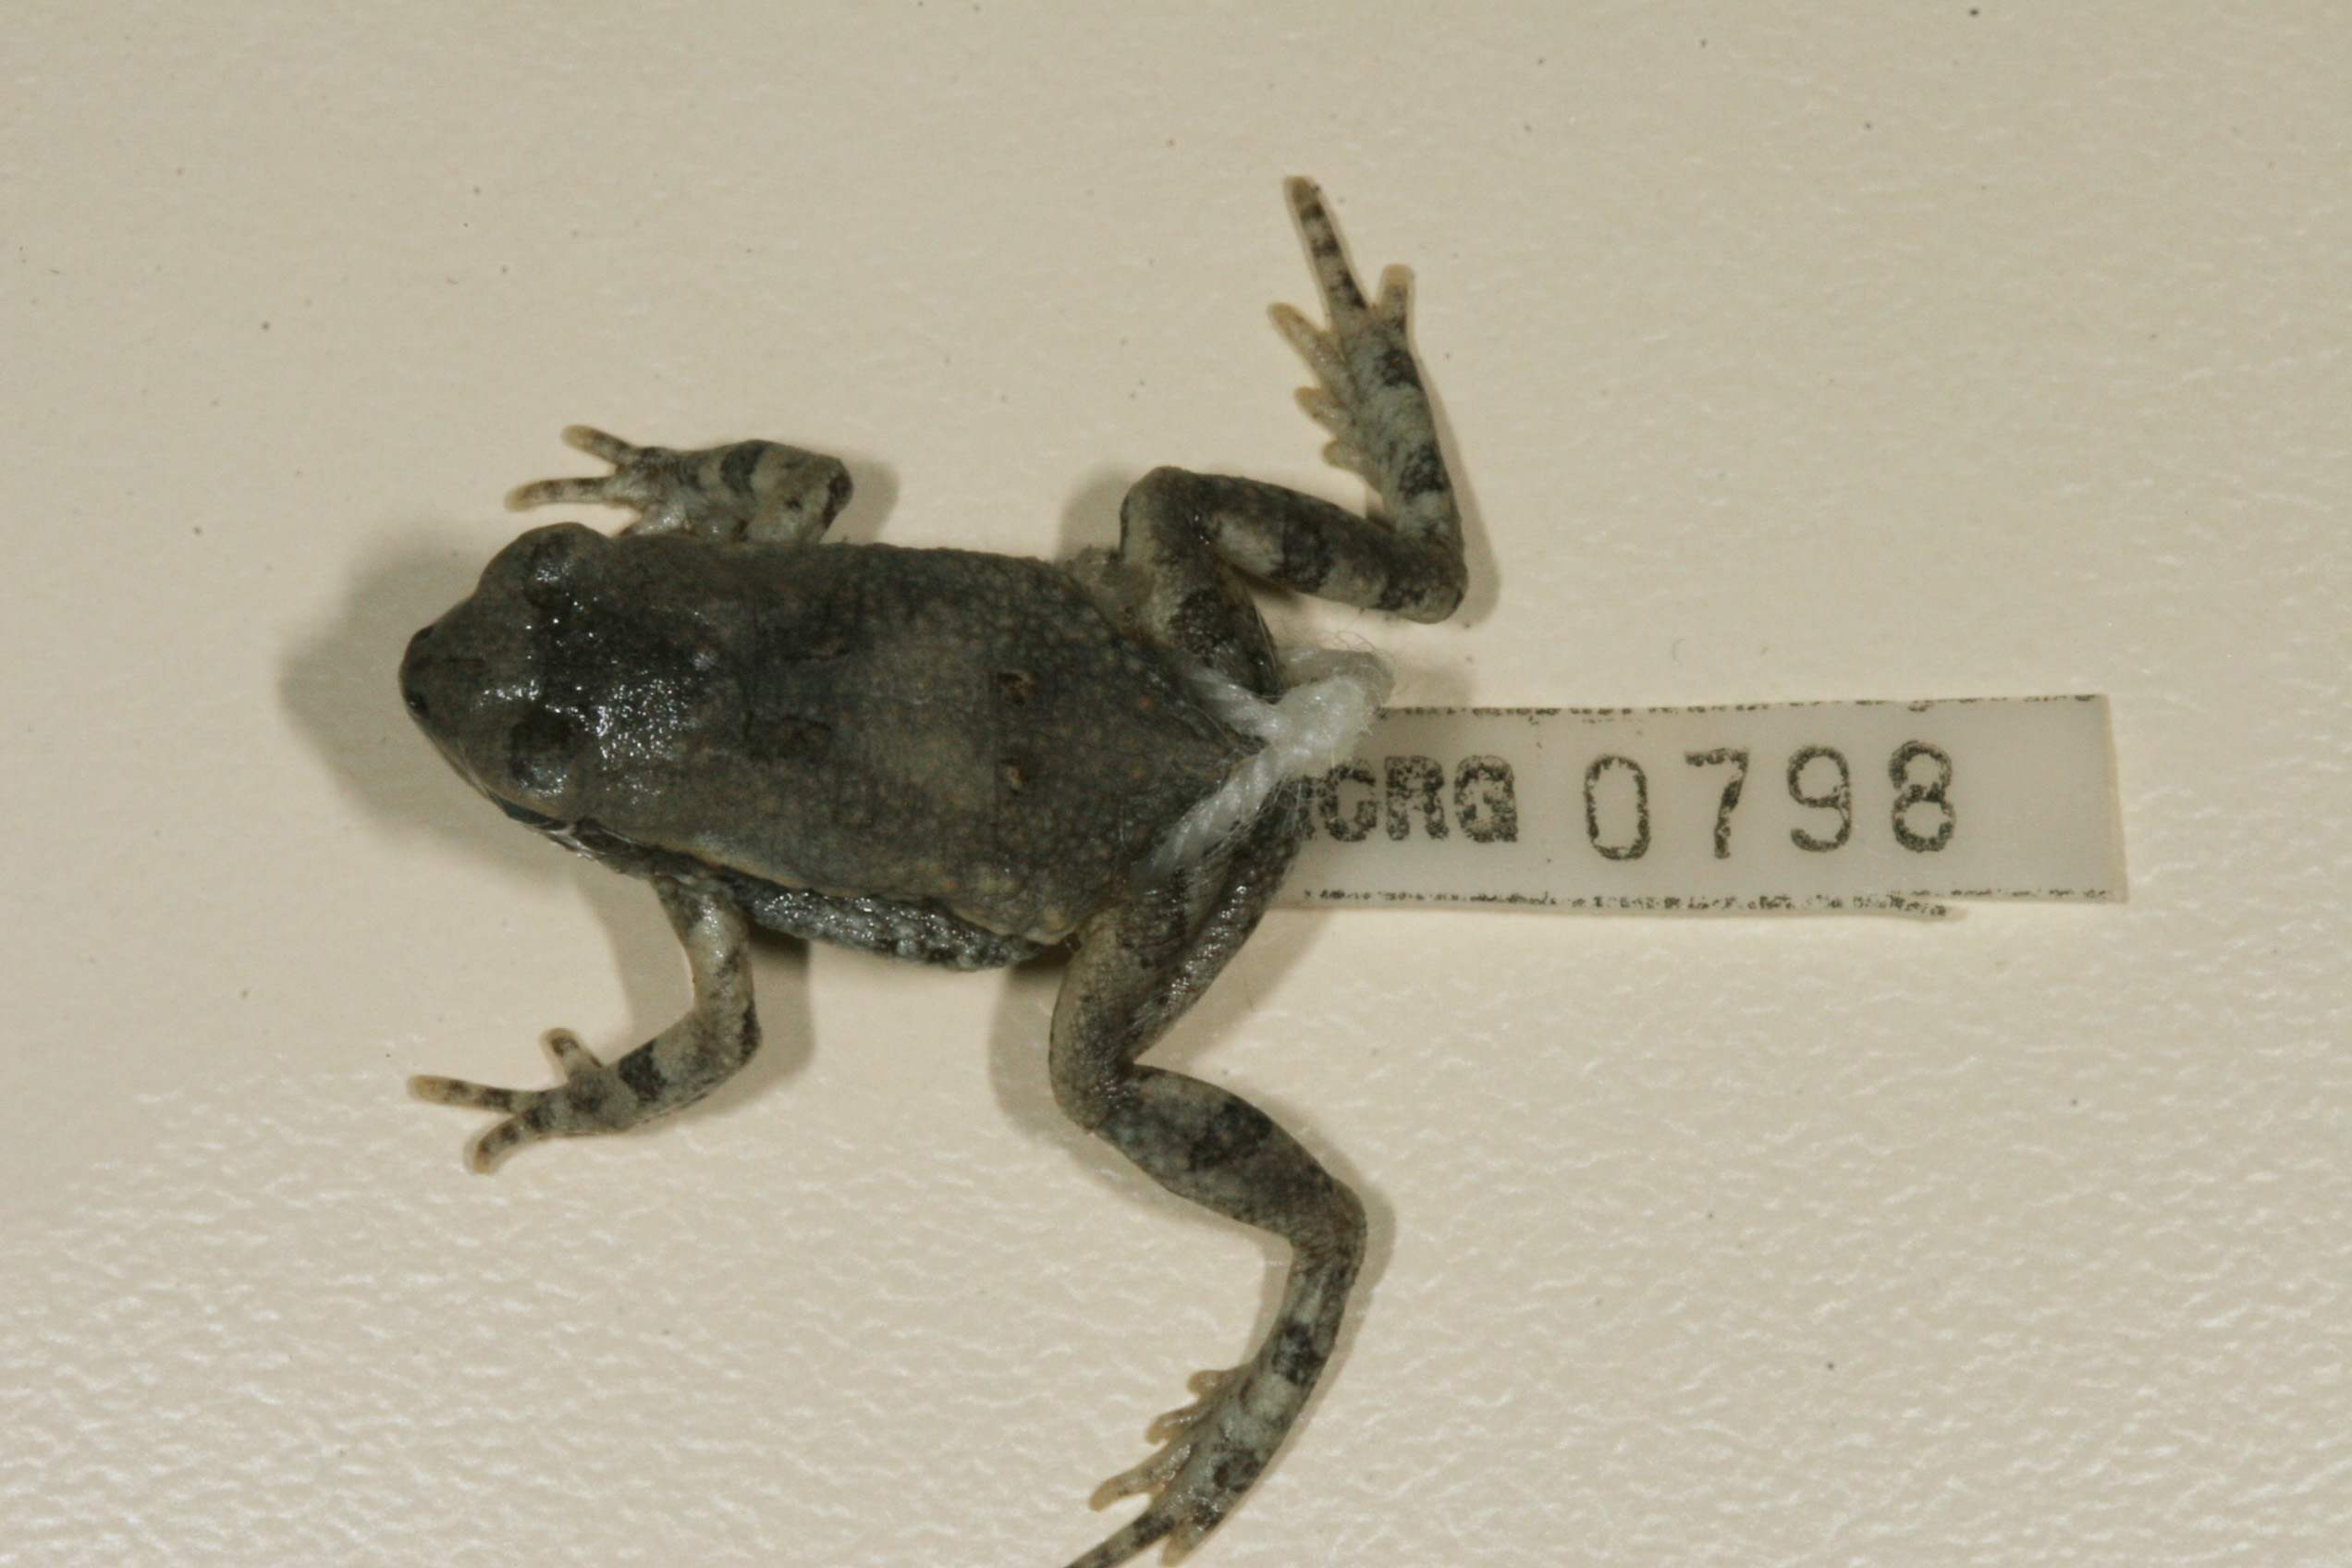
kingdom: Animalia
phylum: Chordata
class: Amphibia
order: Anura
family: Bufonidae
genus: Schismaderma
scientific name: Schismaderma carens
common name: African split-skin toad
